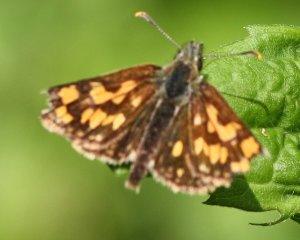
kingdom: Animalia
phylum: Arthropoda
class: Insecta
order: Lepidoptera
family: Hesperiidae
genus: Carterocephalus
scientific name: Carterocephalus palaemon
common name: Chequered Skipper
